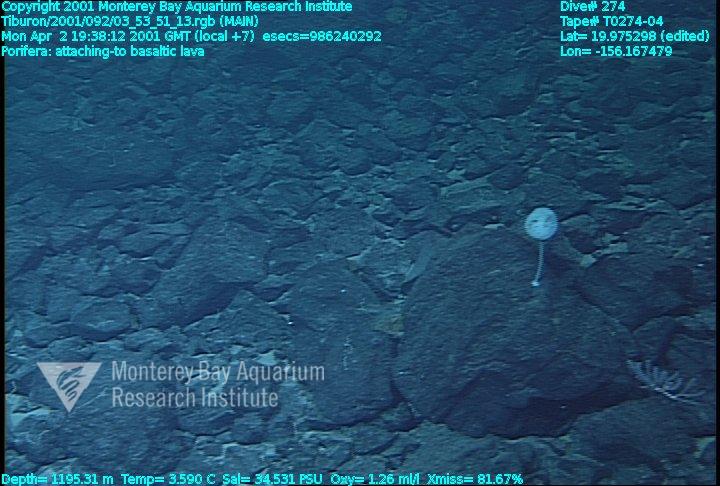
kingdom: Animalia
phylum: Porifera
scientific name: Porifera
